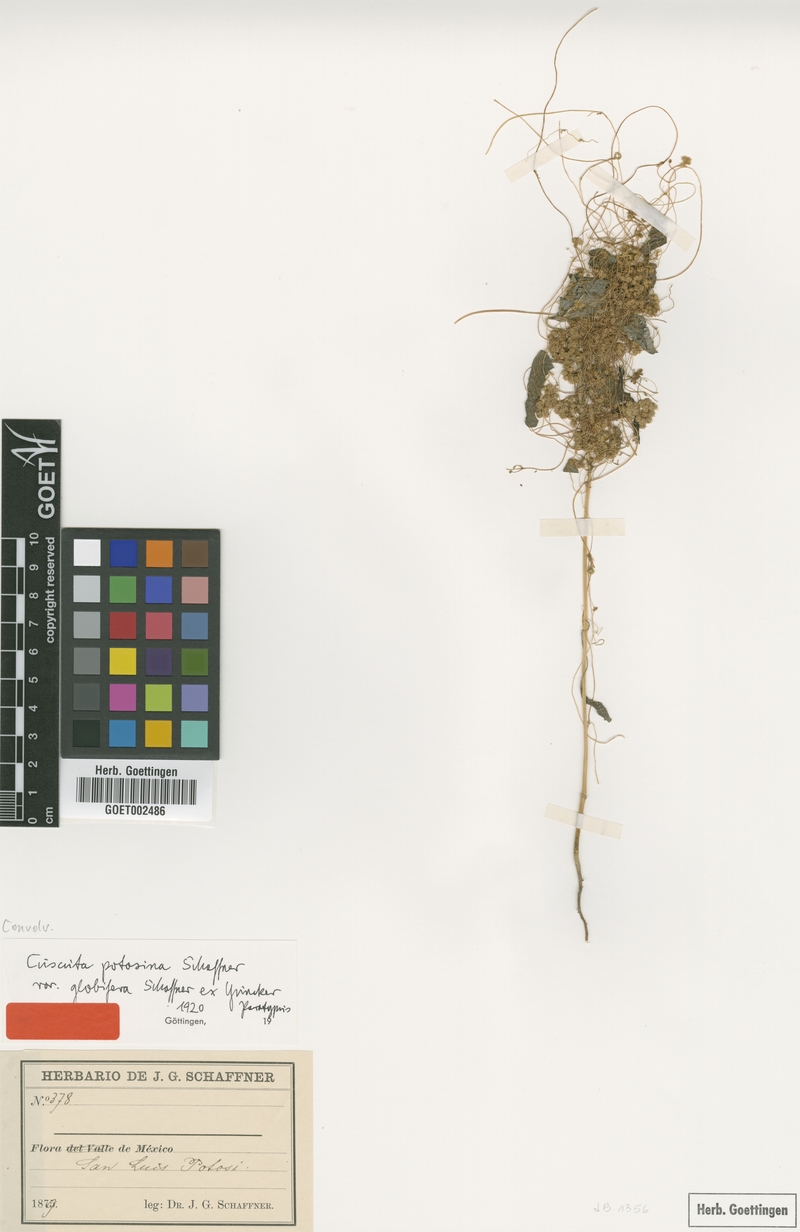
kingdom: Plantae
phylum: Tracheophyta
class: Magnoliopsida
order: Solanales
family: Convolvulaceae
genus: Cuscuta
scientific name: Cuscuta potosina
